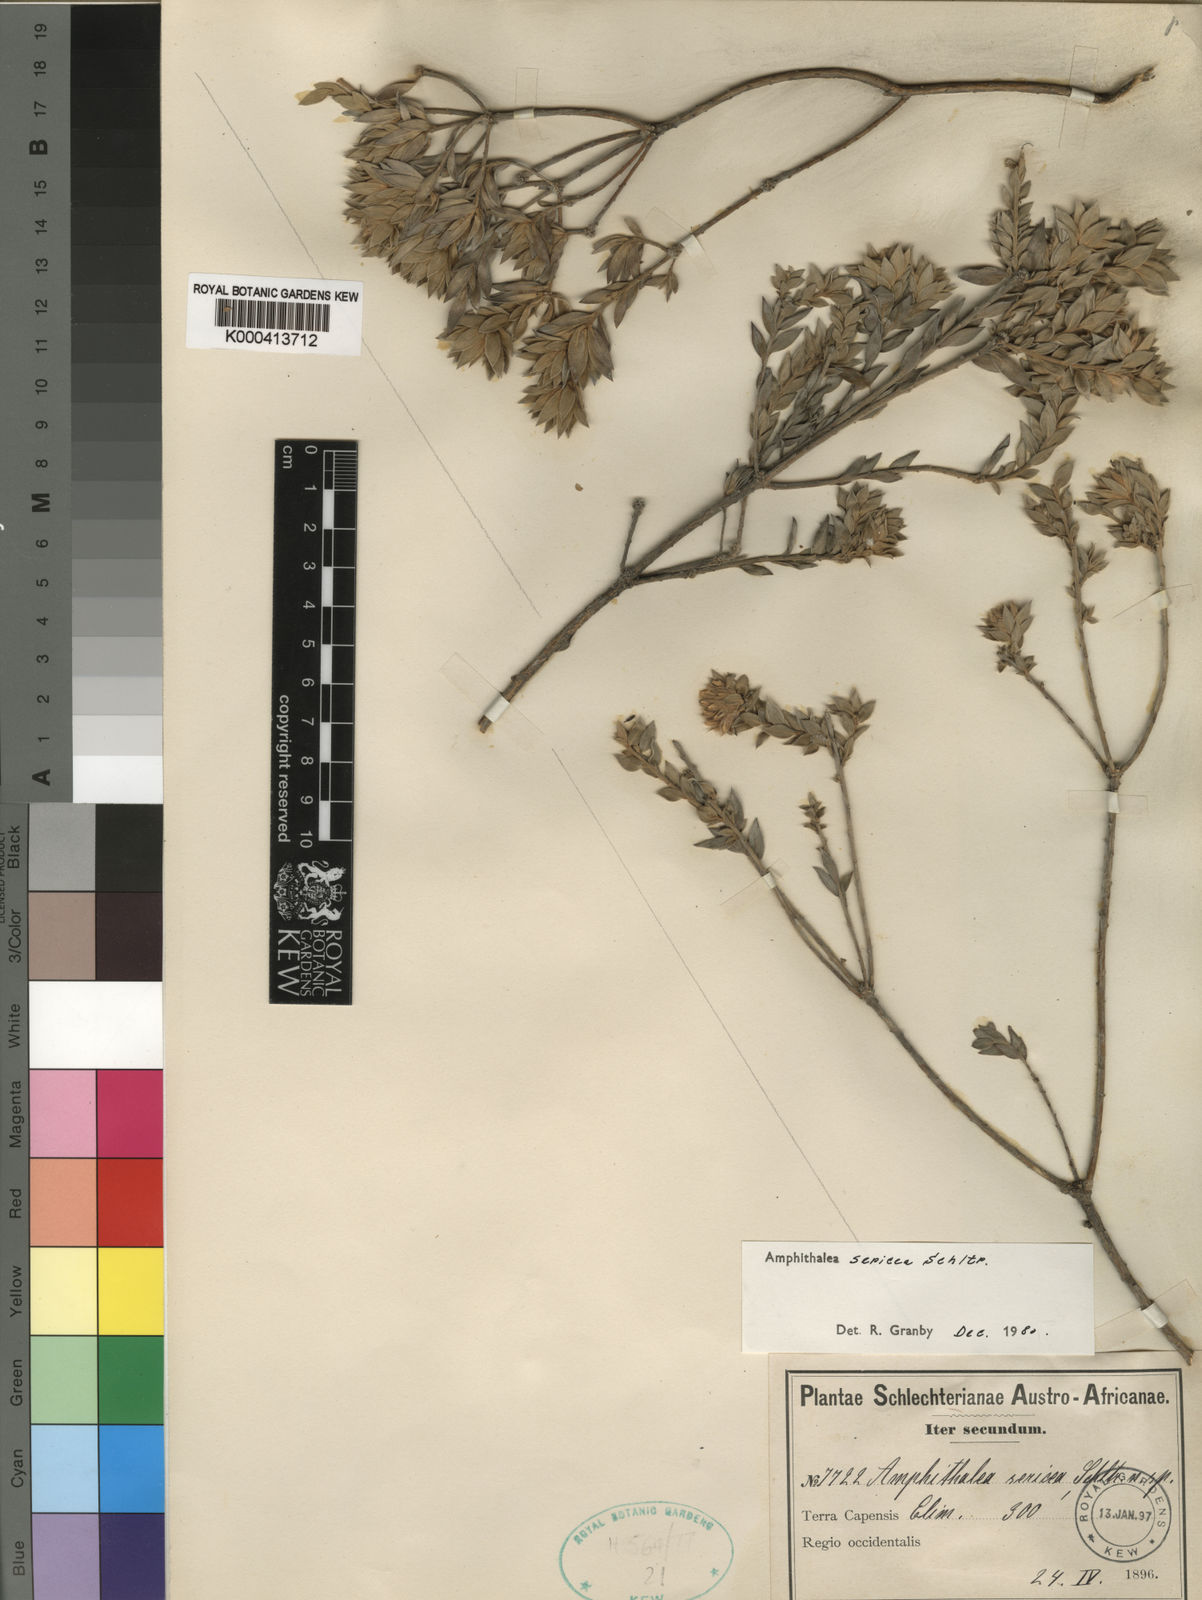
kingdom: Plantae
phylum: Tracheophyta
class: Magnoliopsida
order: Fabales
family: Fabaceae
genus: Amphithalea
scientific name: Amphithalea sericea
